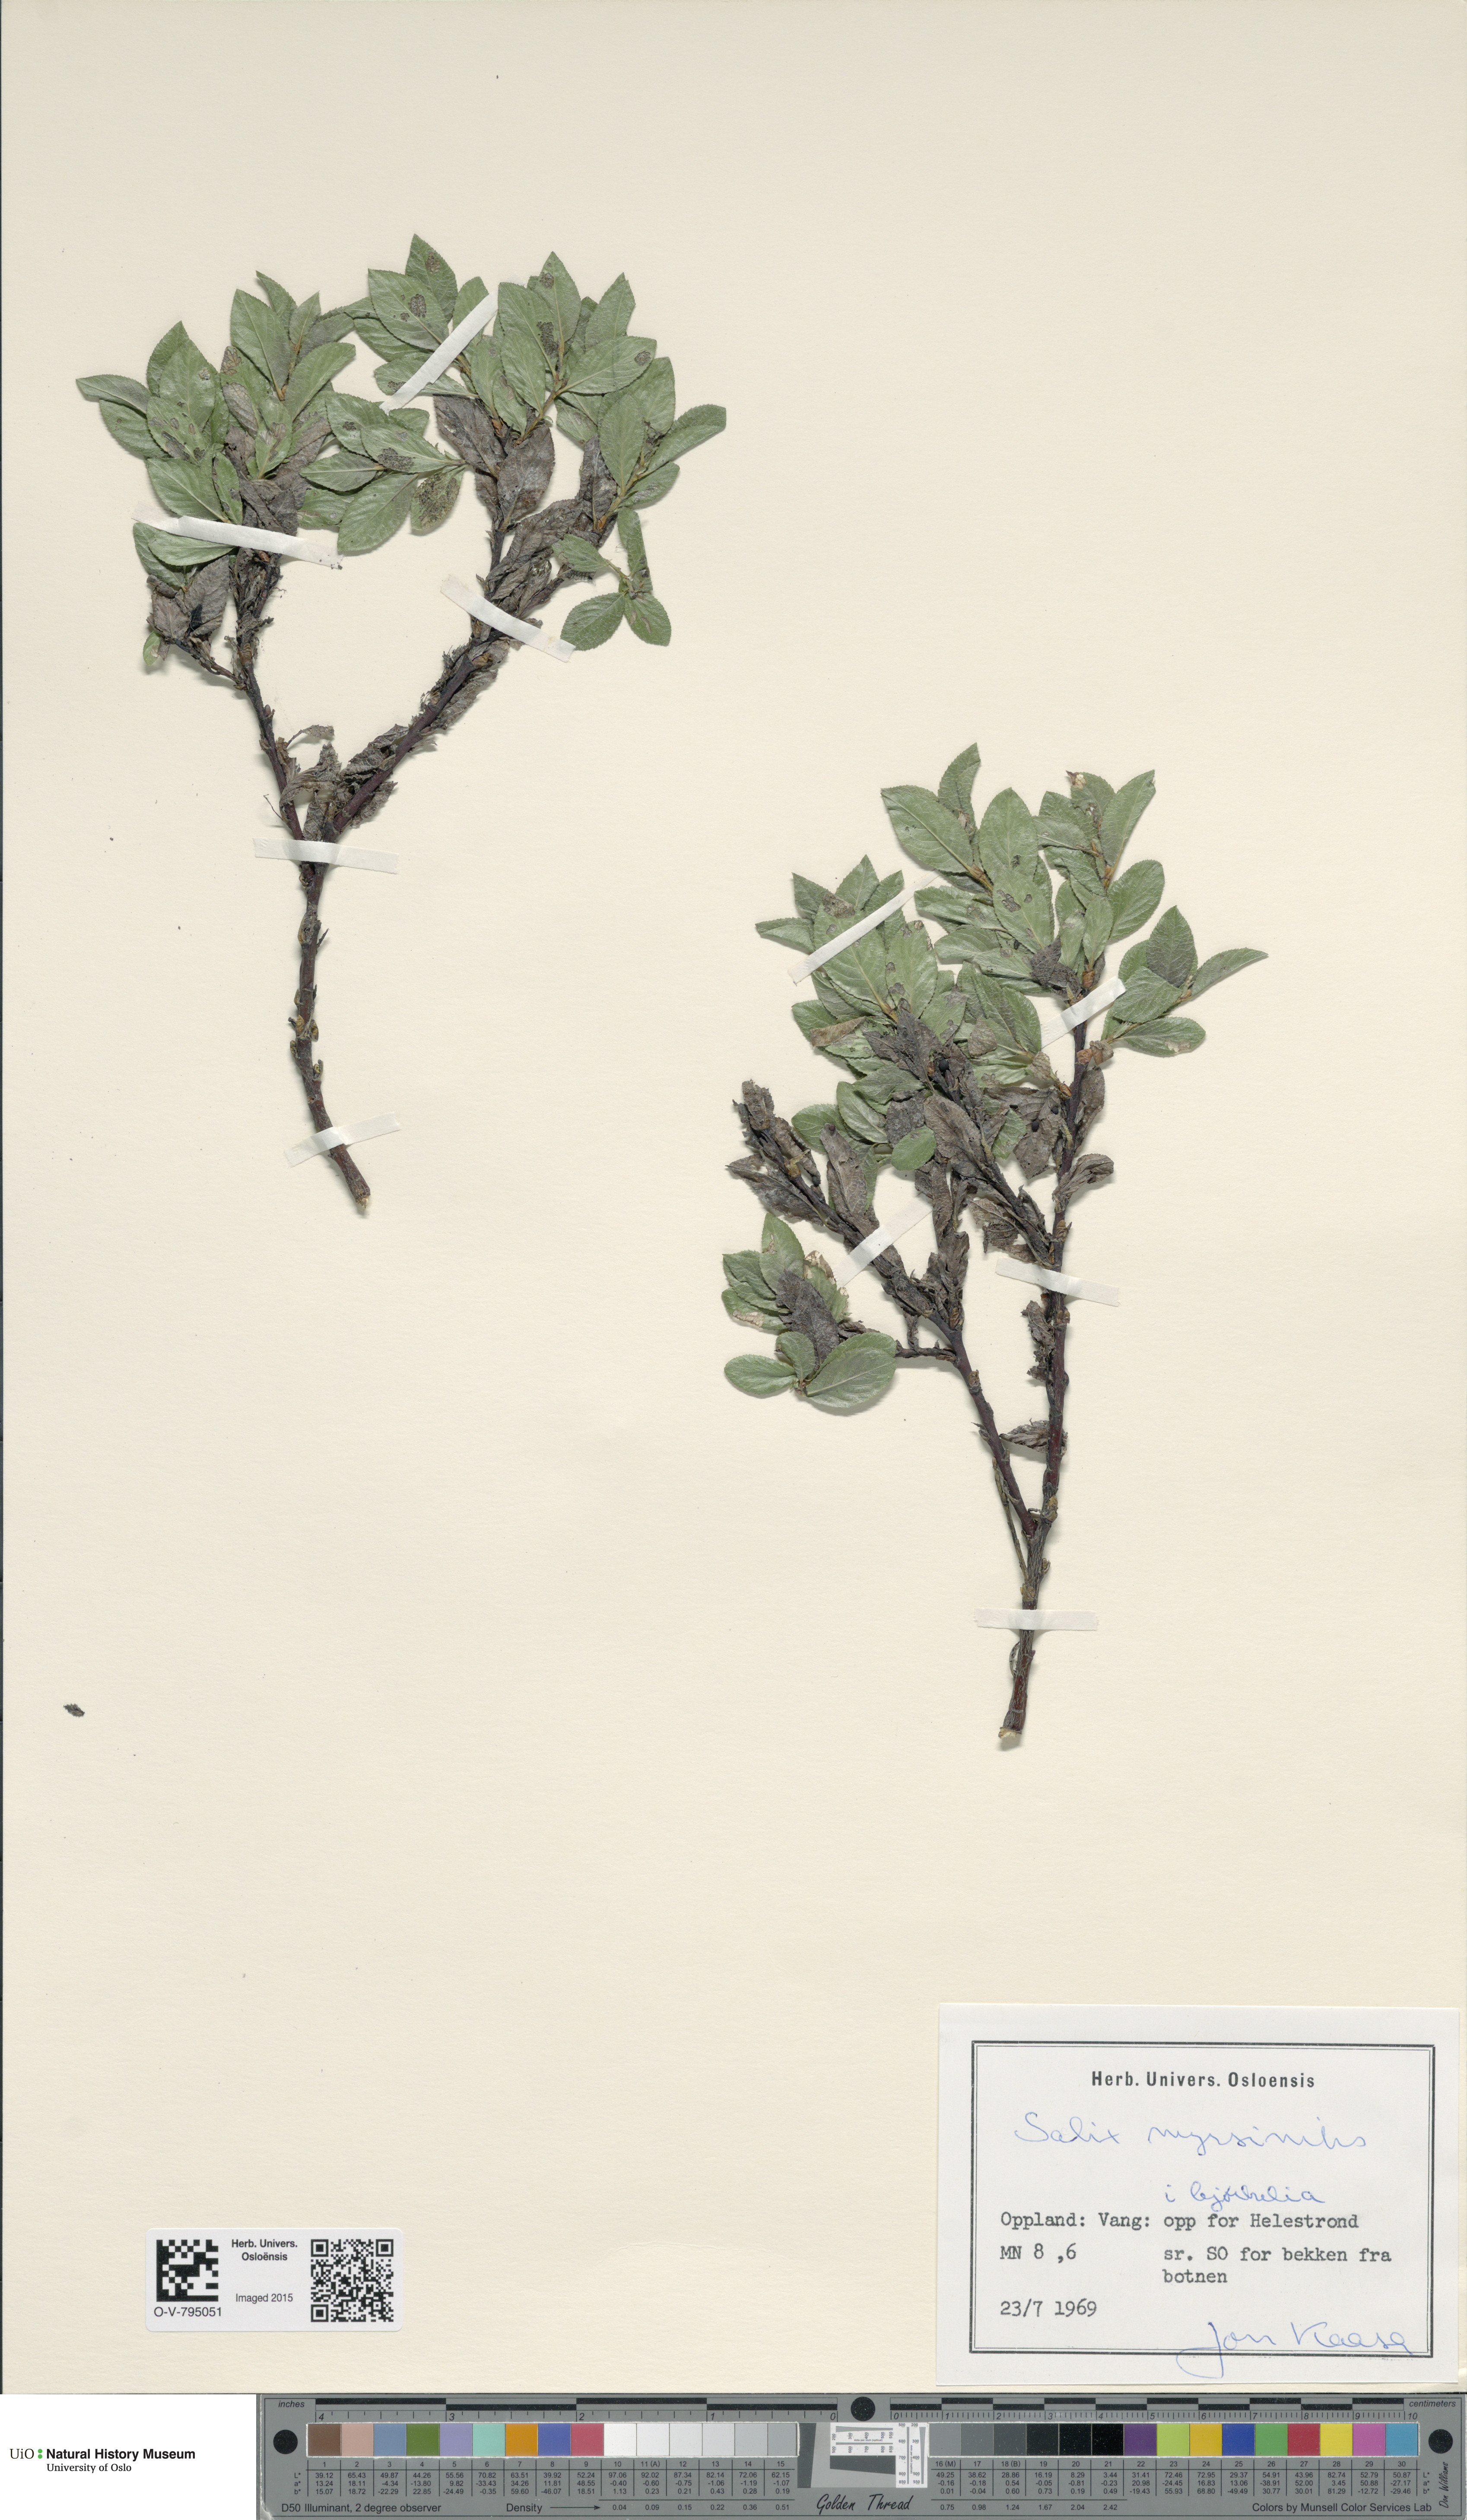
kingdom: Plantae
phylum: Tracheophyta
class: Magnoliopsida
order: Malpighiales
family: Salicaceae
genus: Salix
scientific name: Salix myrsinites
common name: Myrtle willow
